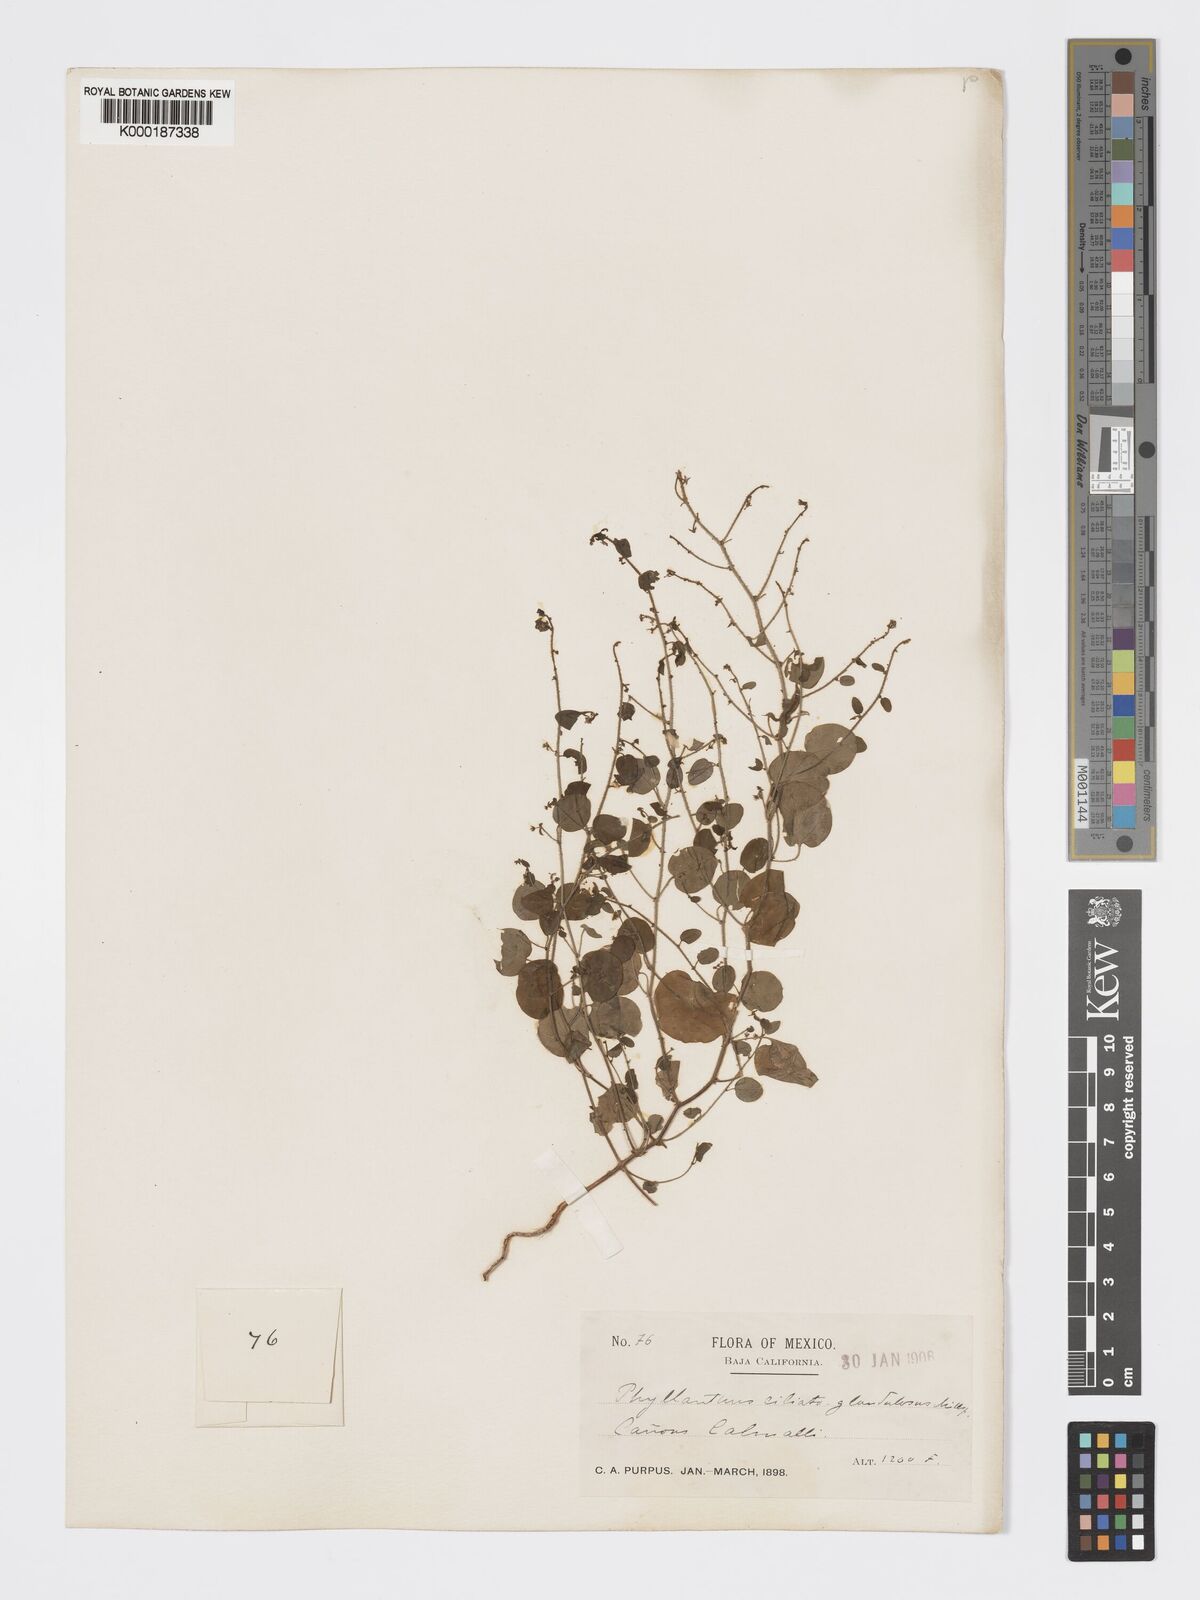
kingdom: Plantae
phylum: Tracheophyta
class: Magnoliopsida
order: Malpighiales
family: Phyllanthaceae
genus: Andrachne
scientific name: Andrachne microphylla
